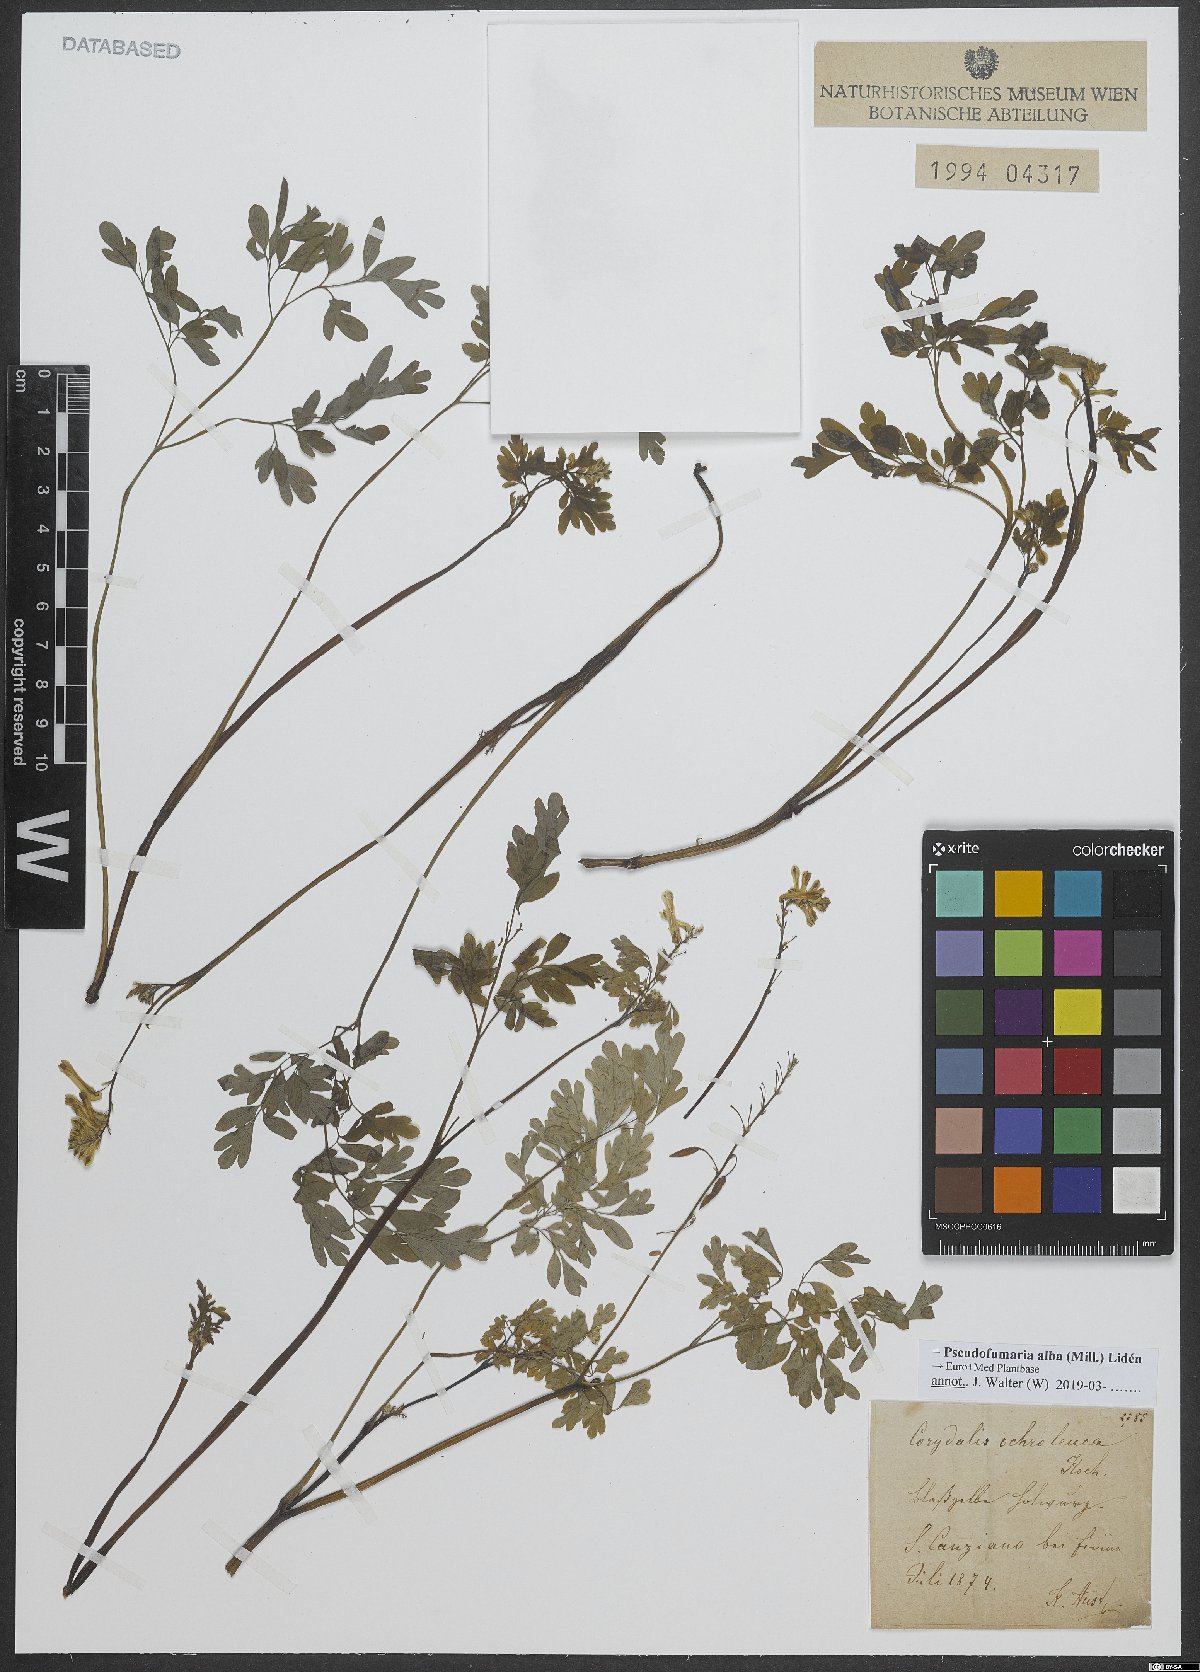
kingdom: Plantae
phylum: Tracheophyta
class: Magnoliopsida
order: Ranunculales
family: Papaveraceae
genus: Pseudofumaria
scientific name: Pseudofumaria alba
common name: Pale corydalis
